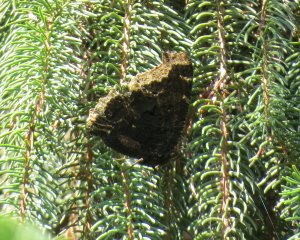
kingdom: Animalia
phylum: Arthropoda
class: Insecta
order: Lepidoptera
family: Nymphalidae
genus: Nymphalis
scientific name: Nymphalis antiopa
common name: Mourning Cloak
